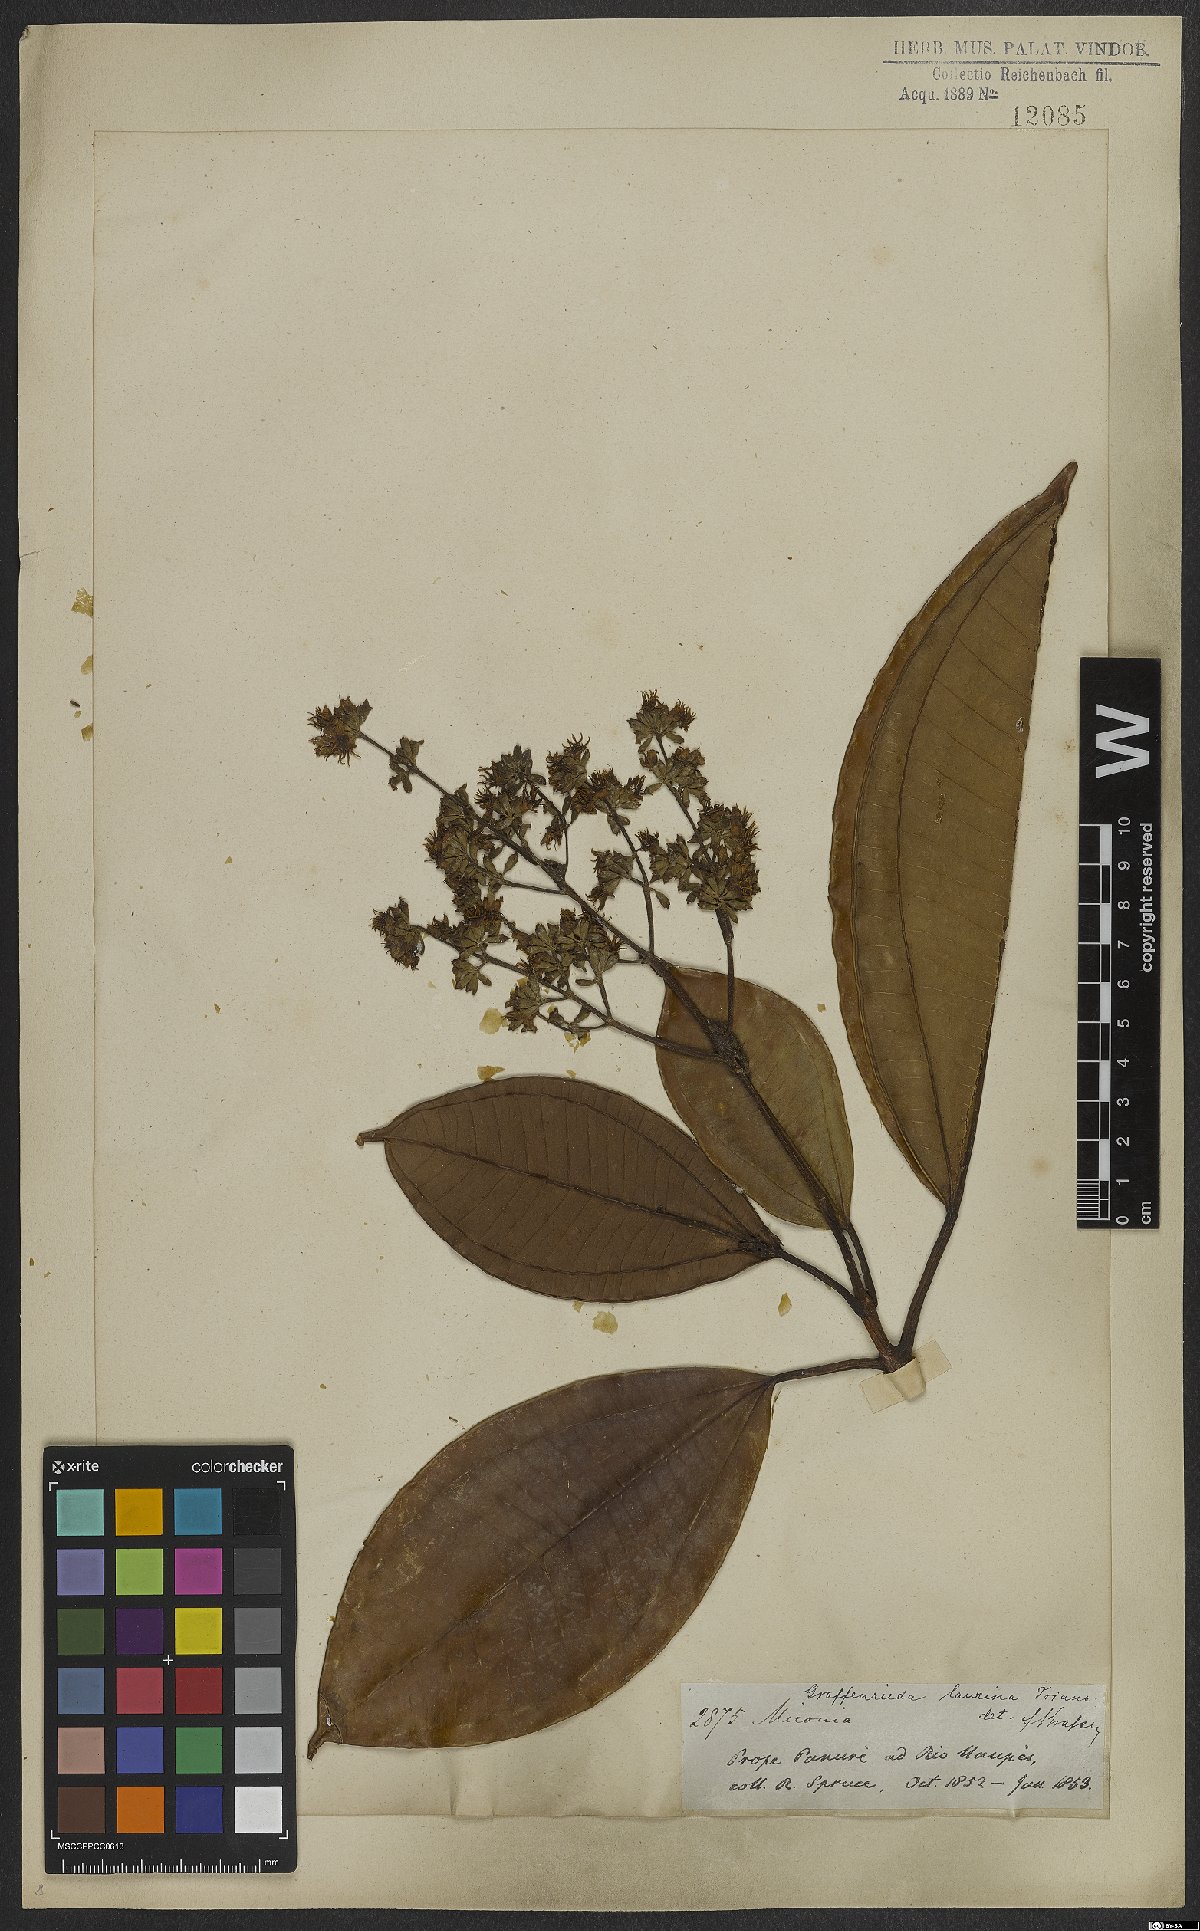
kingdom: Plantae
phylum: Tracheophyta
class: Magnoliopsida
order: Myrtales
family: Melastomataceae
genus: Graffenrieda
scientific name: Graffenrieda laurina
